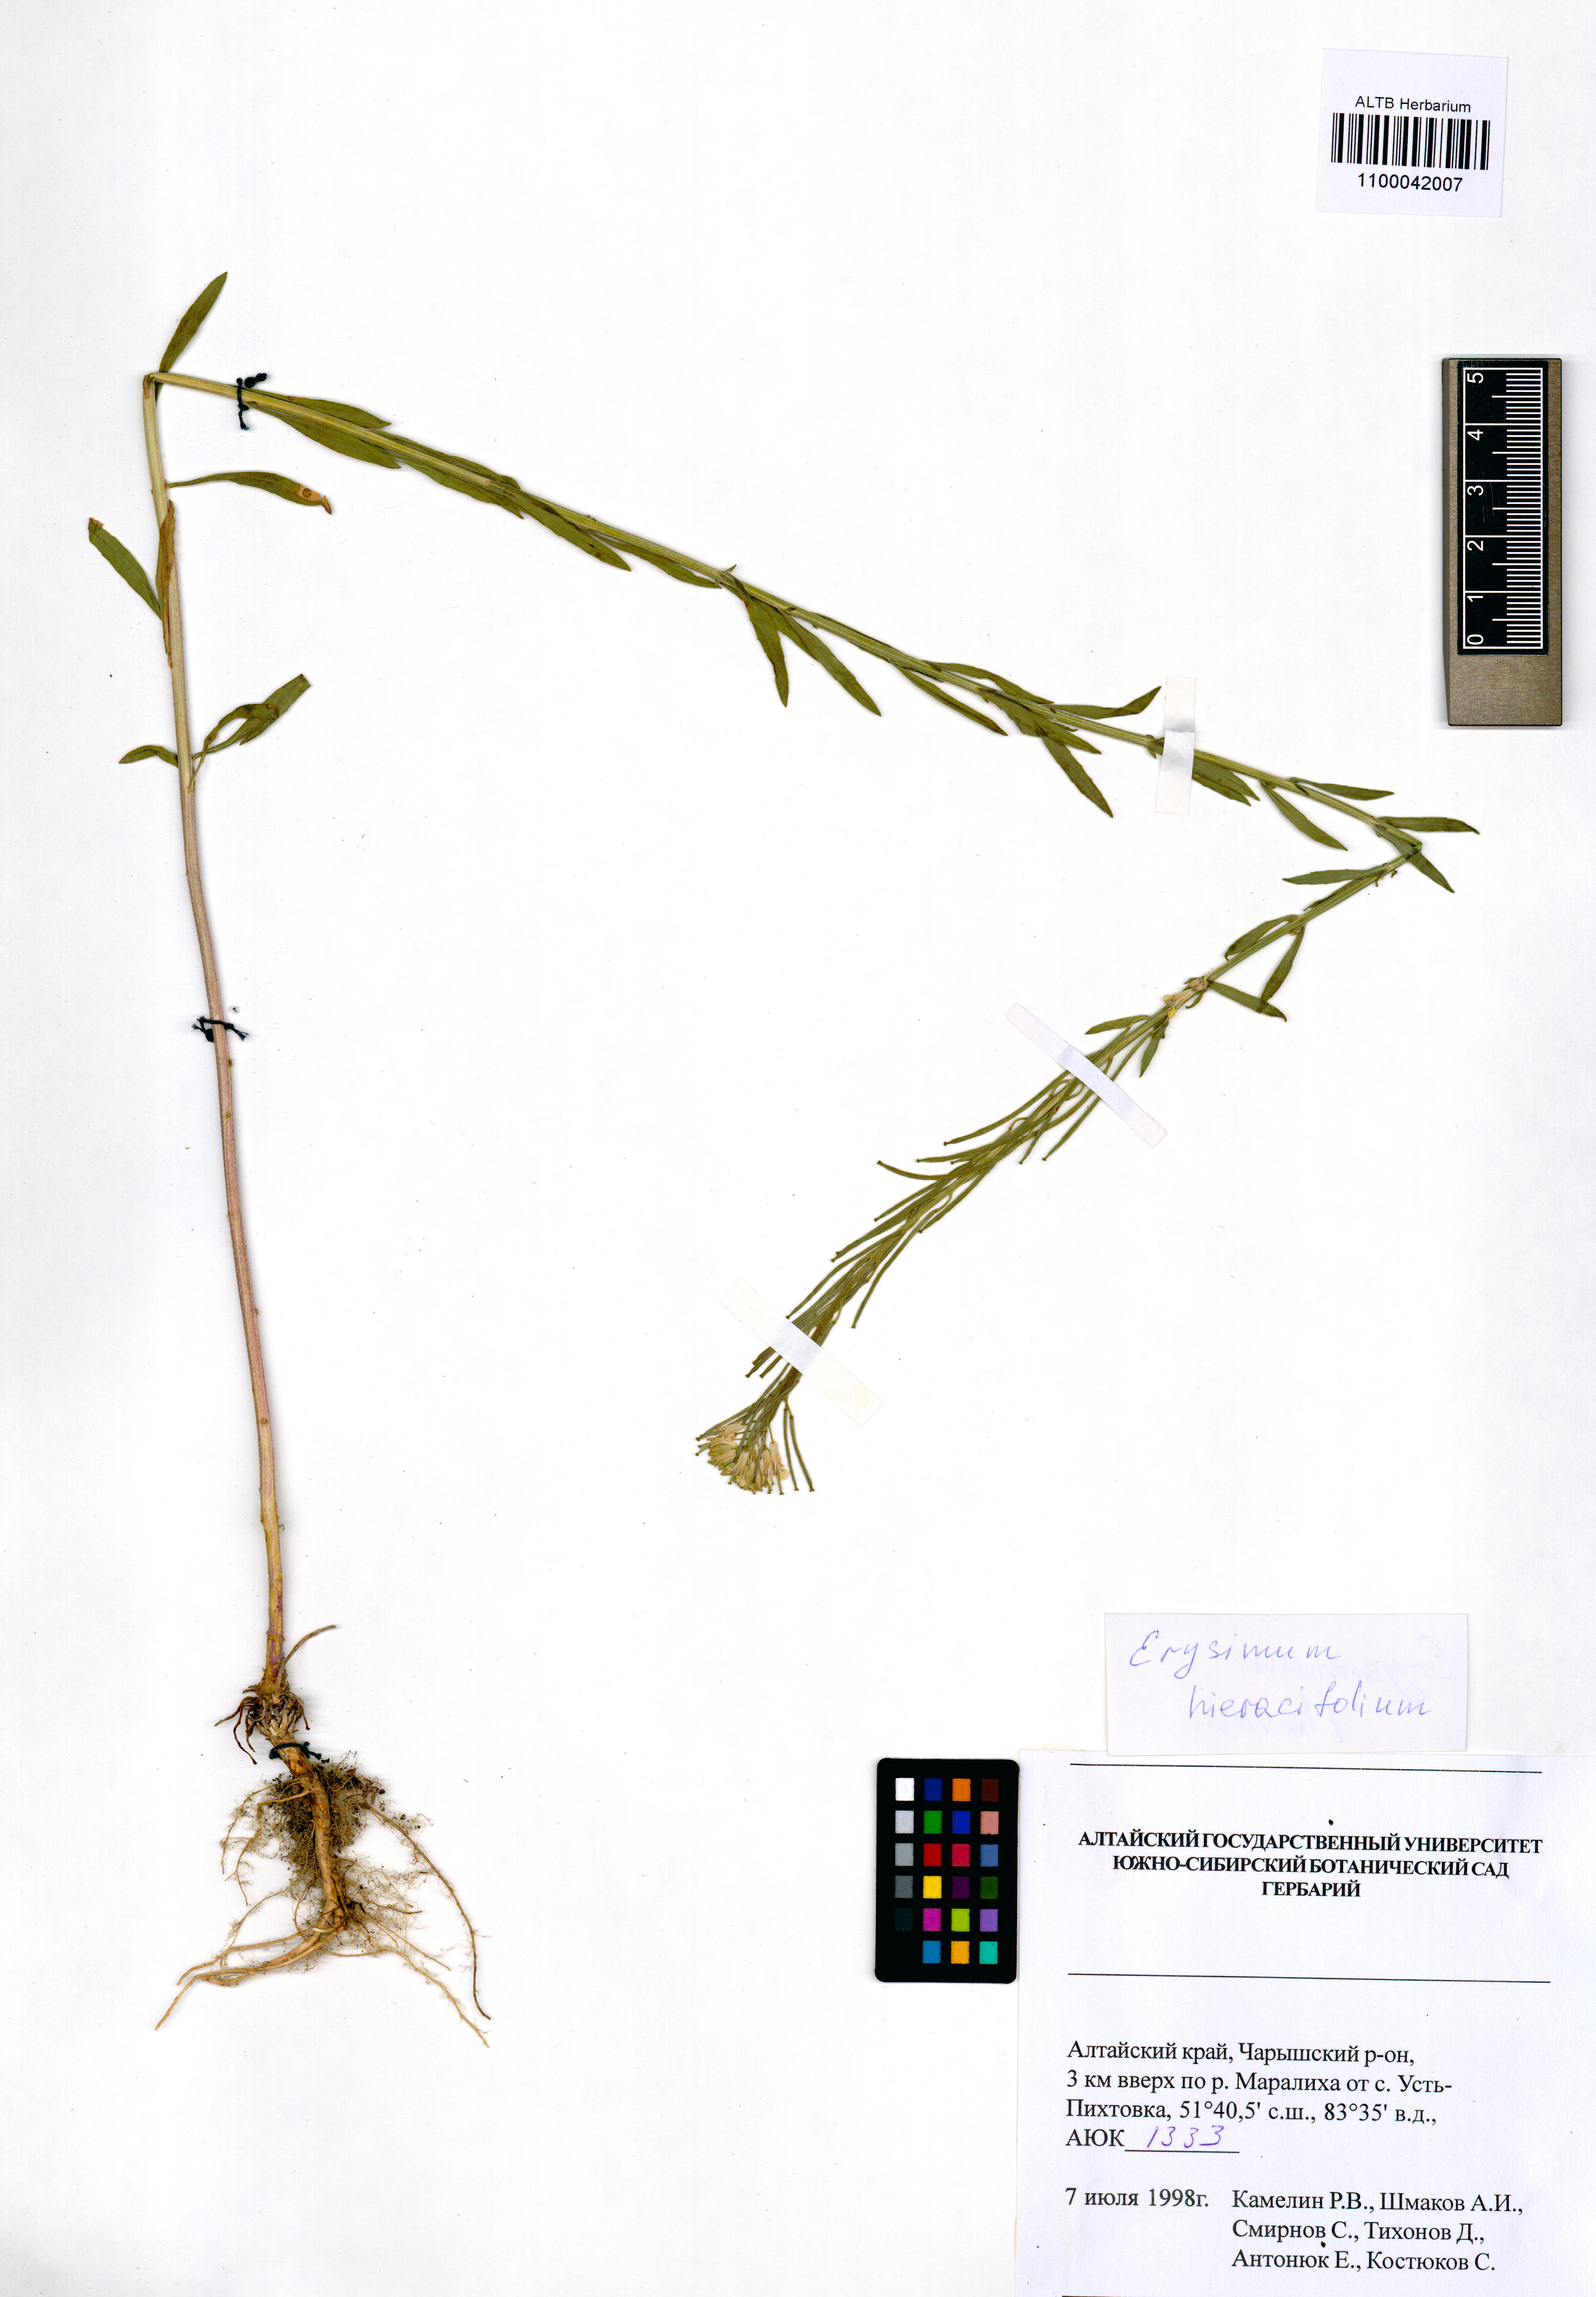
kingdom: Plantae
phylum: Tracheophyta
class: Magnoliopsida
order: Brassicales
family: Brassicaceae
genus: Erysimum
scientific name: Erysimum hieraciifolium
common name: European wallflower
